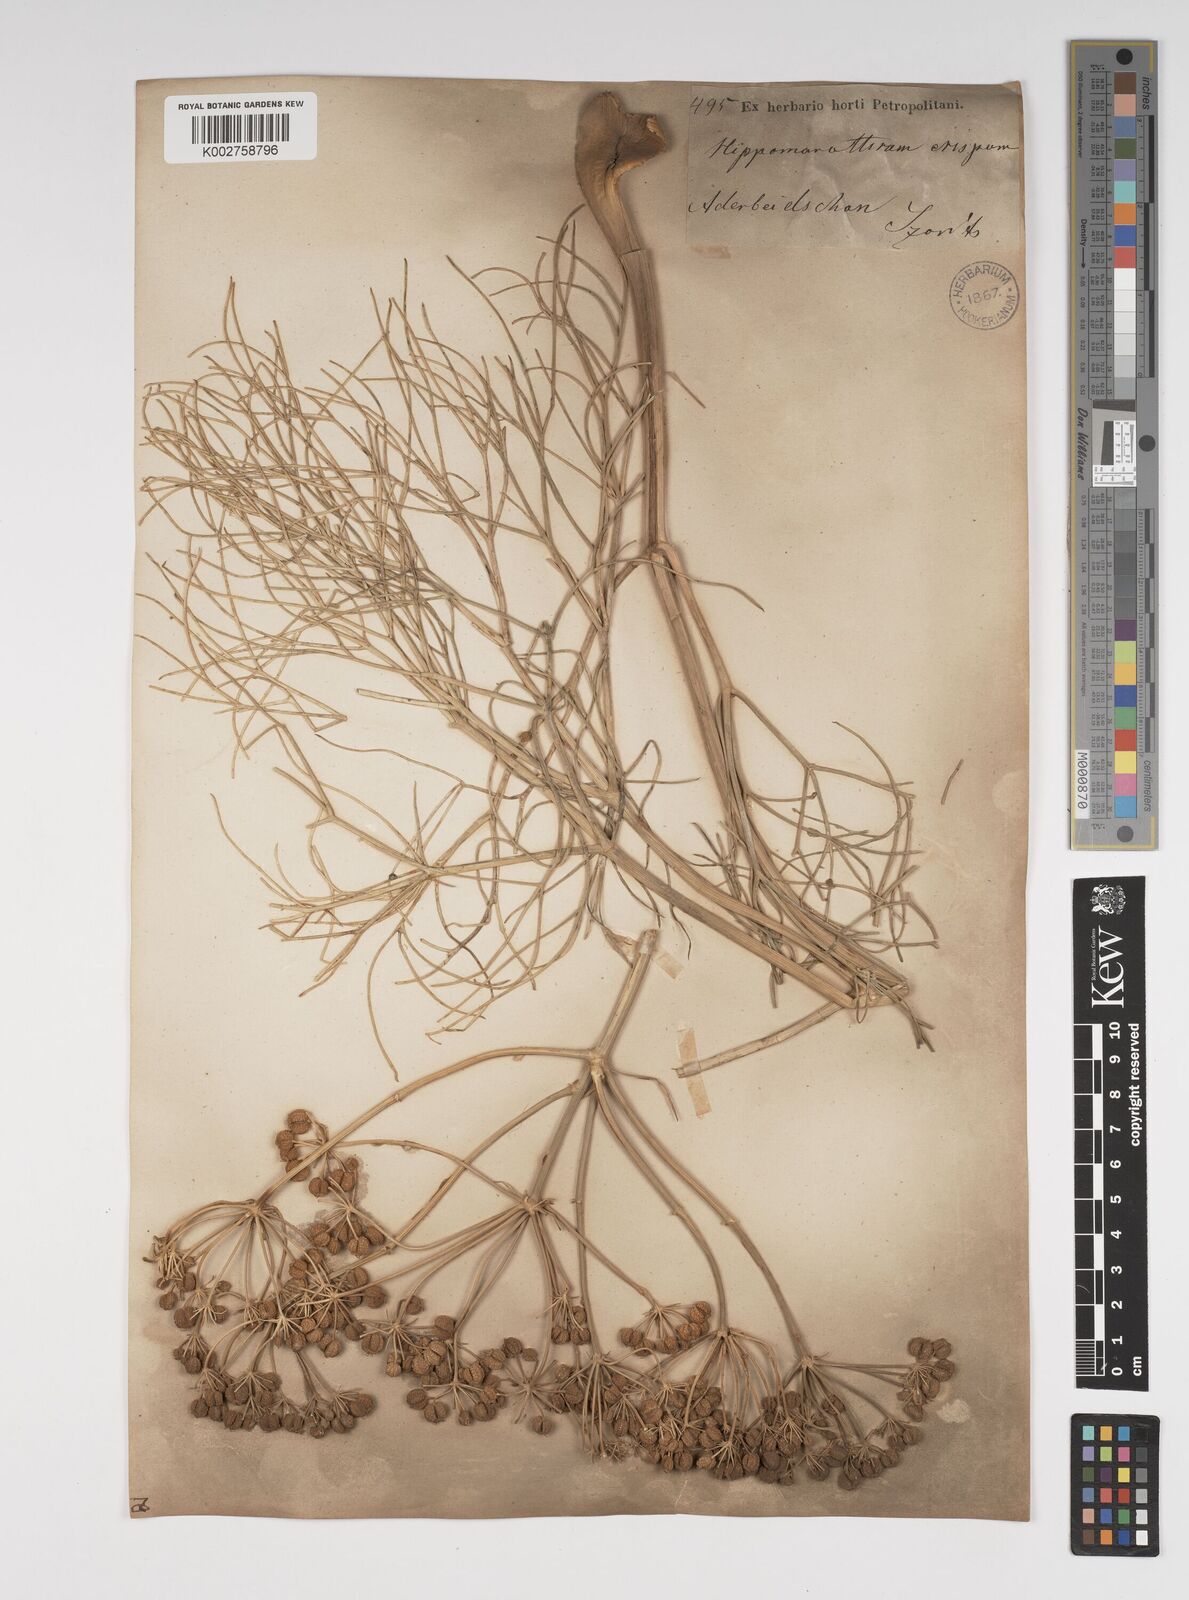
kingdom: Plantae
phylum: Tracheophyta
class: Magnoliopsida
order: Apiales
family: Apiaceae
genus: Bilacunaria
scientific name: Bilacunaria microcarpa
